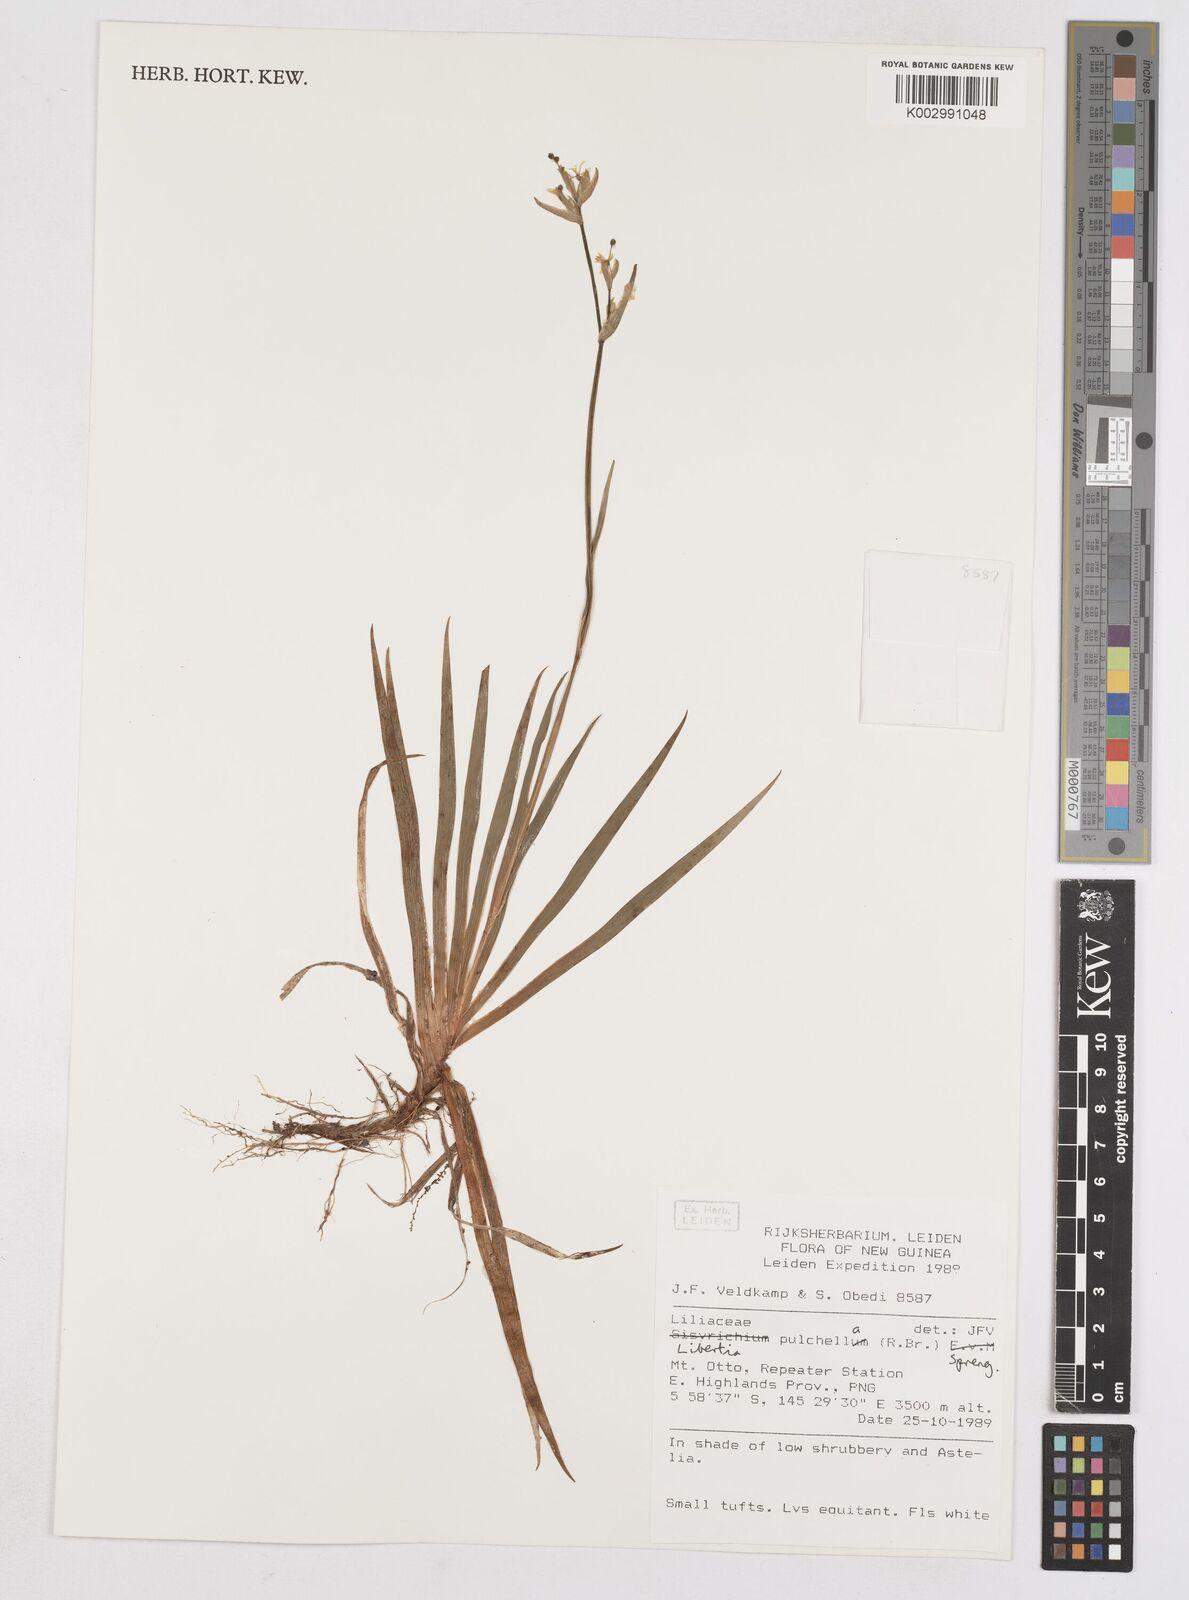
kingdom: Plantae
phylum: Tracheophyta
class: Liliopsida
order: Asparagales
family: Iridaceae
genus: Libertia
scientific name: Libertia pulchella
